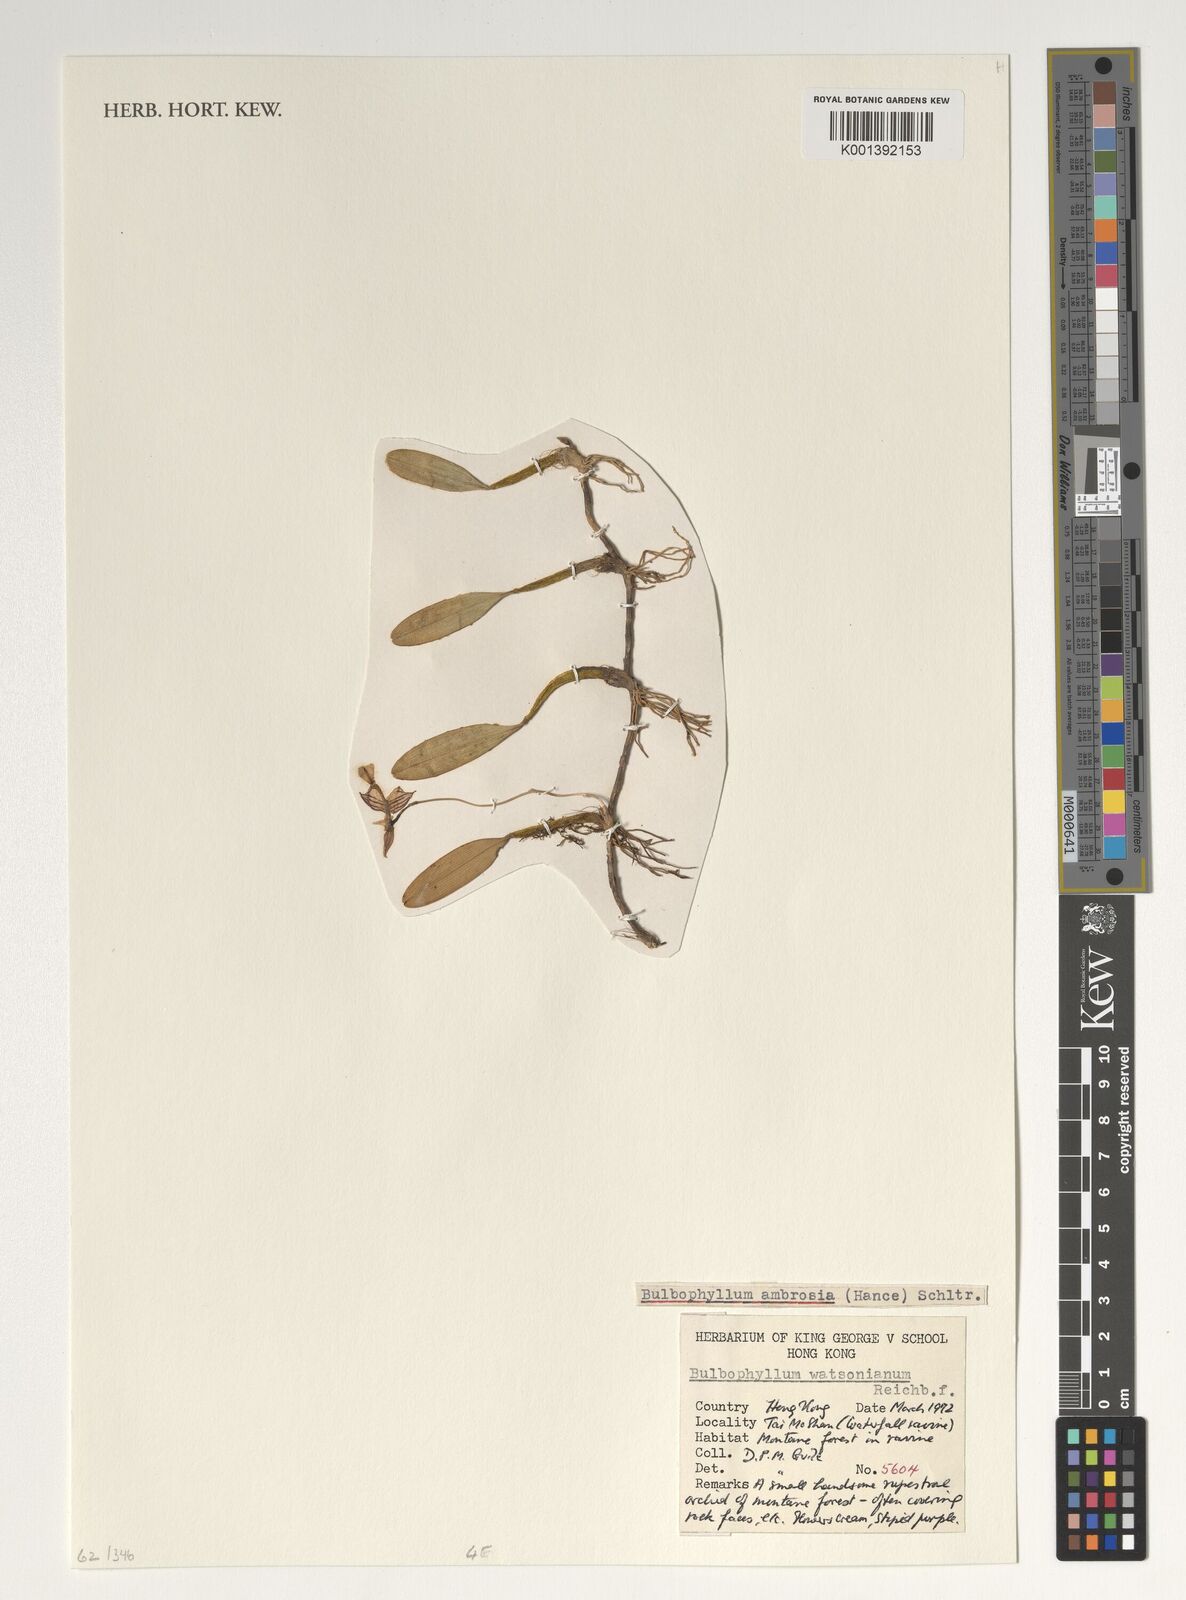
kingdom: Plantae
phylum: Tracheophyta
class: Liliopsida
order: Asparagales
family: Orchidaceae
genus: Bulbophyllum
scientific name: Bulbophyllum ambrosia
